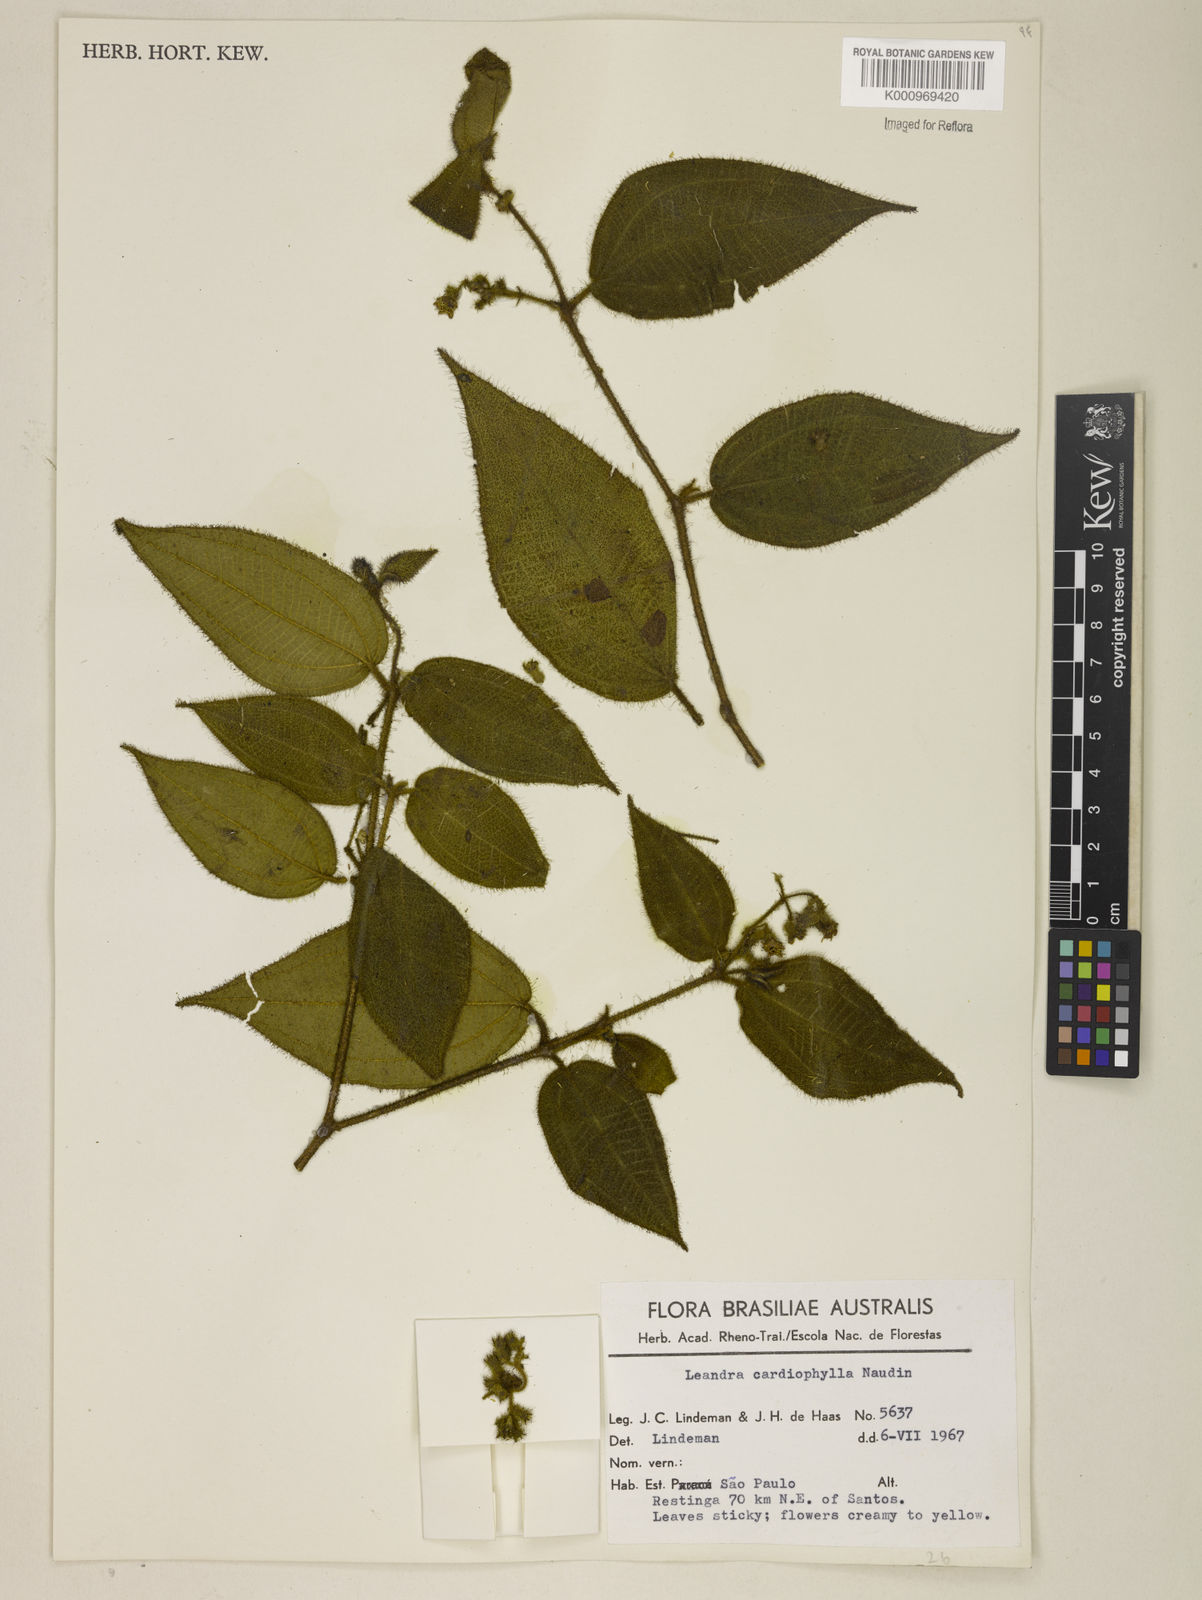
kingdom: Plantae
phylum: Tracheophyta
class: Magnoliopsida
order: Myrtales
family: Melastomataceae
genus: Miconia
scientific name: Miconia leacordifolia
